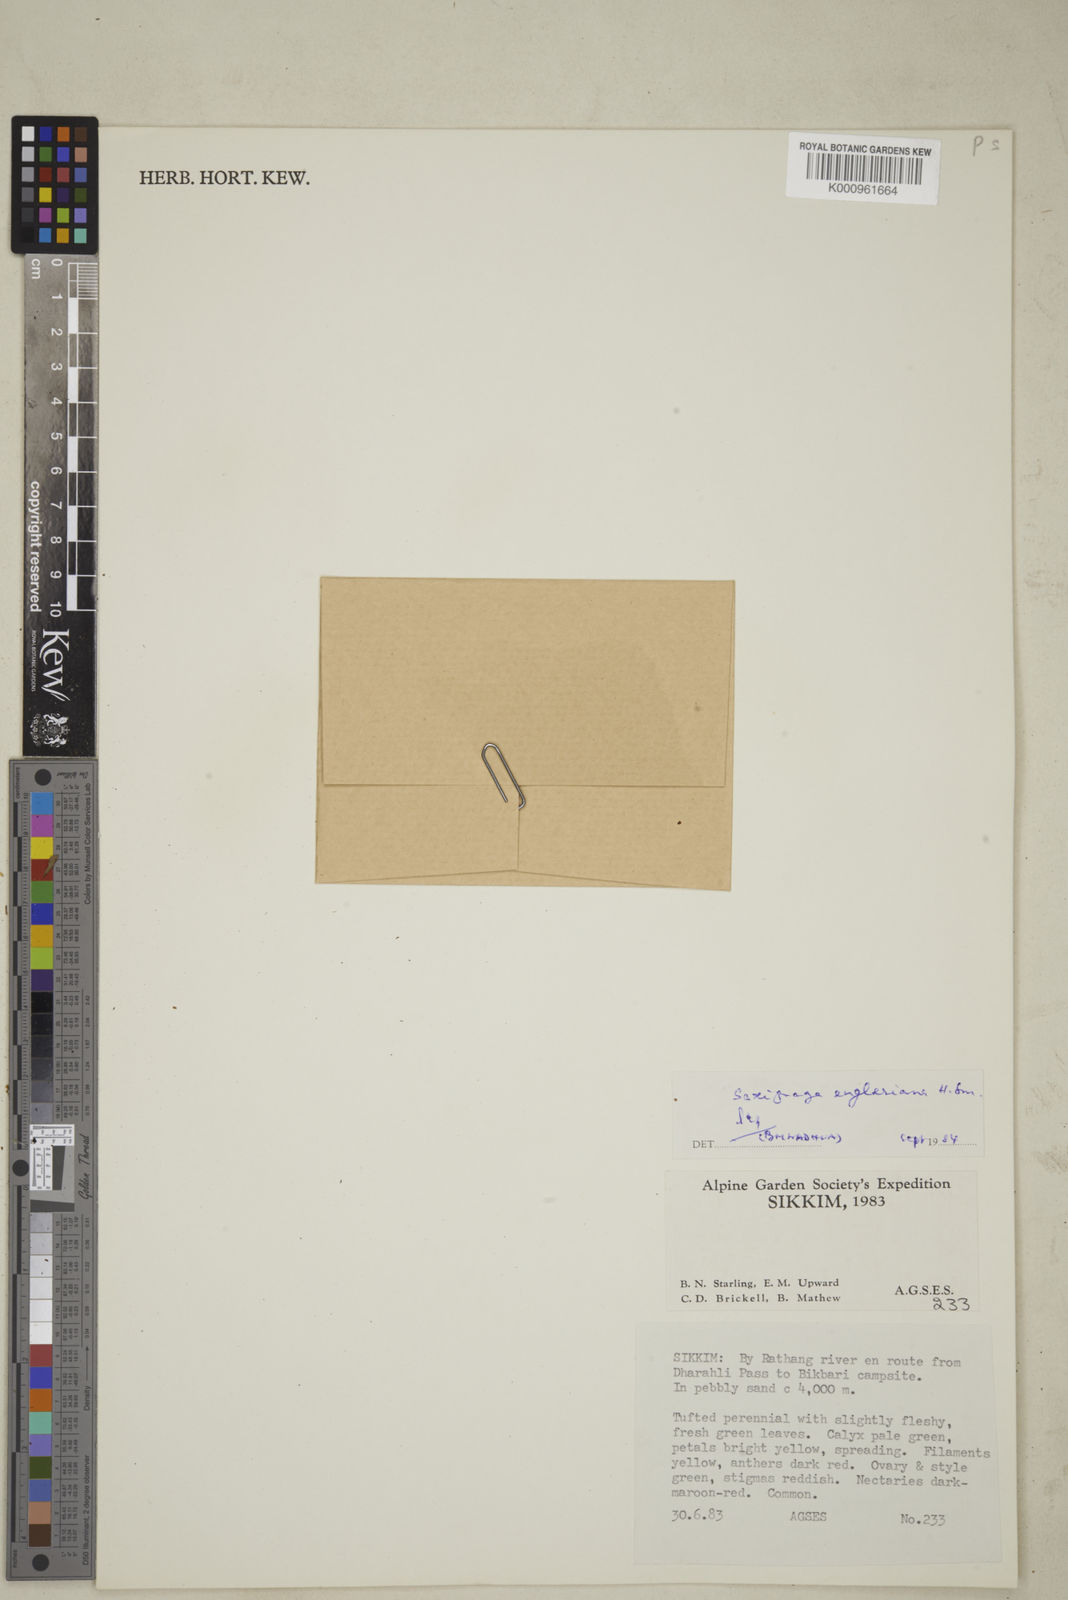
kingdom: Plantae
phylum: Tracheophyta
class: Magnoliopsida
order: Saxifragales
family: Saxifragaceae
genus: Saxifraga
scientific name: Saxifraga engleriana
